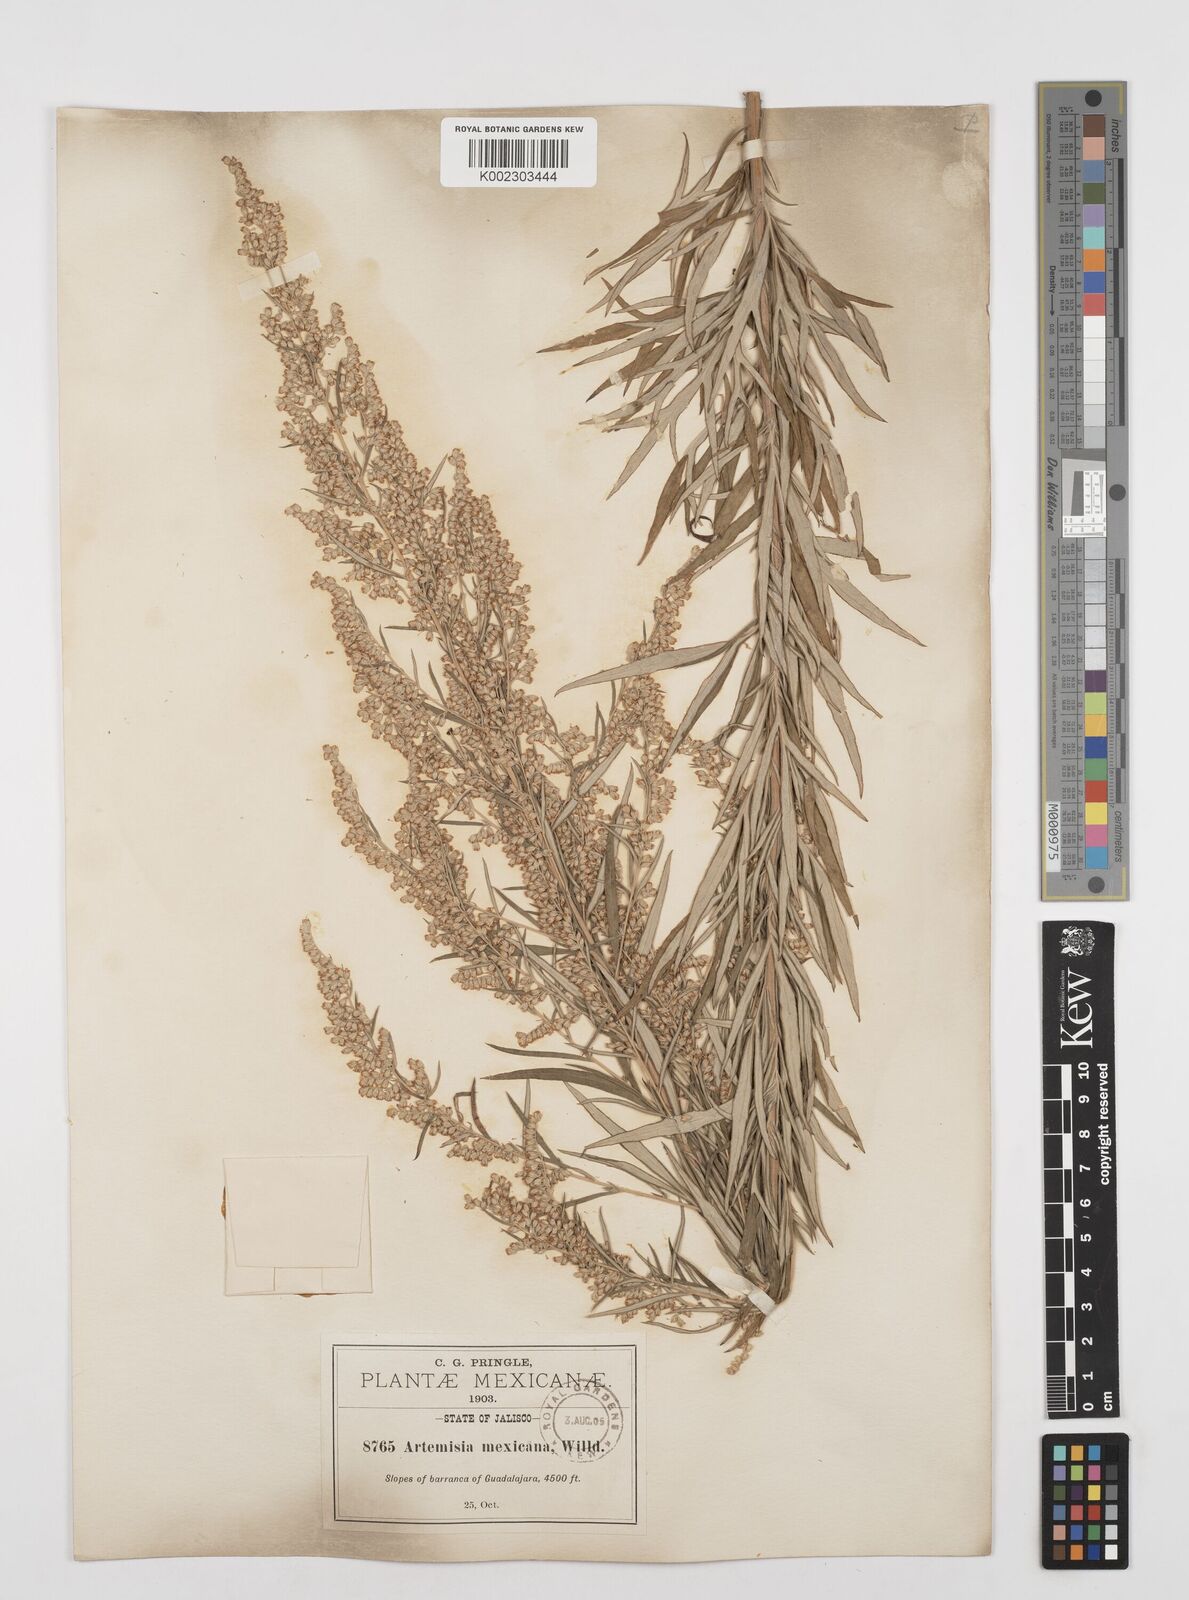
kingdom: Plantae
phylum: Tracheophyta
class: Magnoliopsida
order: Asterales
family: Asteraceae
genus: Artemisia
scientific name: Artemisia ludoviciana
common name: Western mugwort
